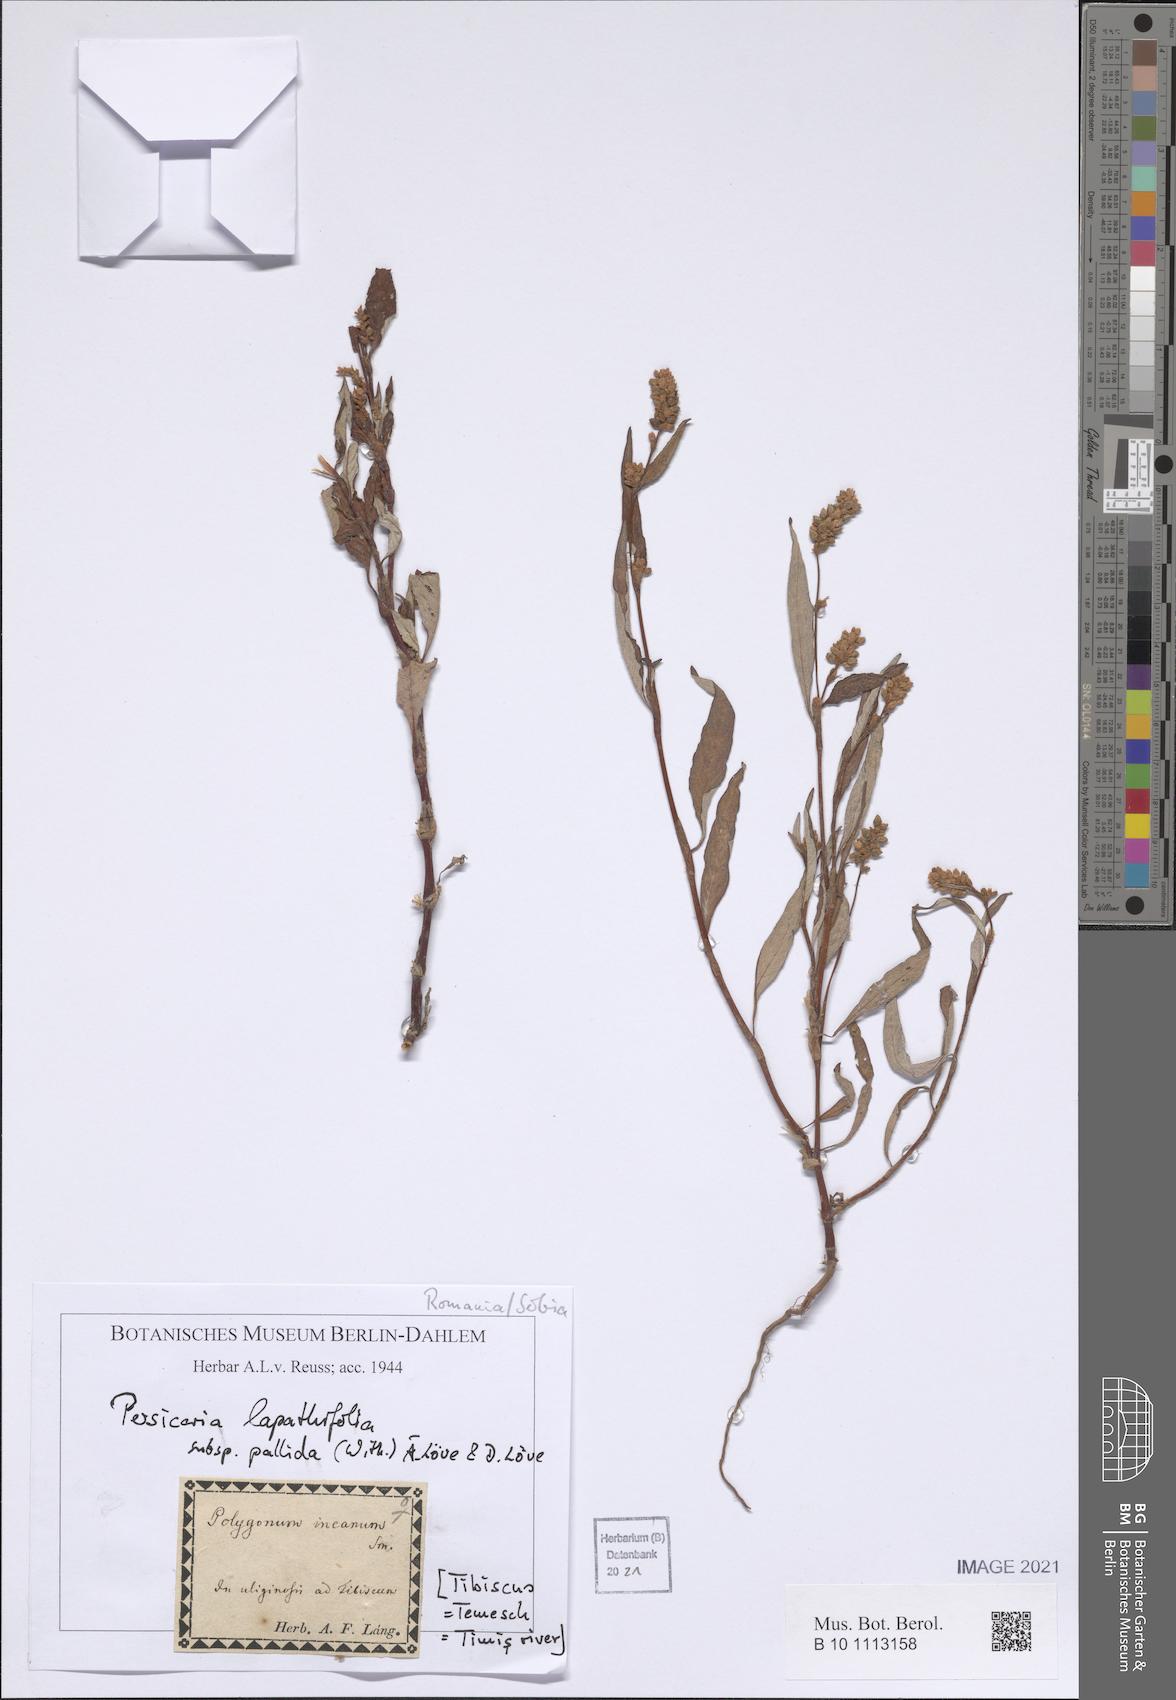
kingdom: Plantae
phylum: Tracheophyta
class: Magnoliopsida
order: Caryophyllales
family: Polygonaceae
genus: Persicaria
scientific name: Persicaria lapathifolia
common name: Curlytop knotweed
